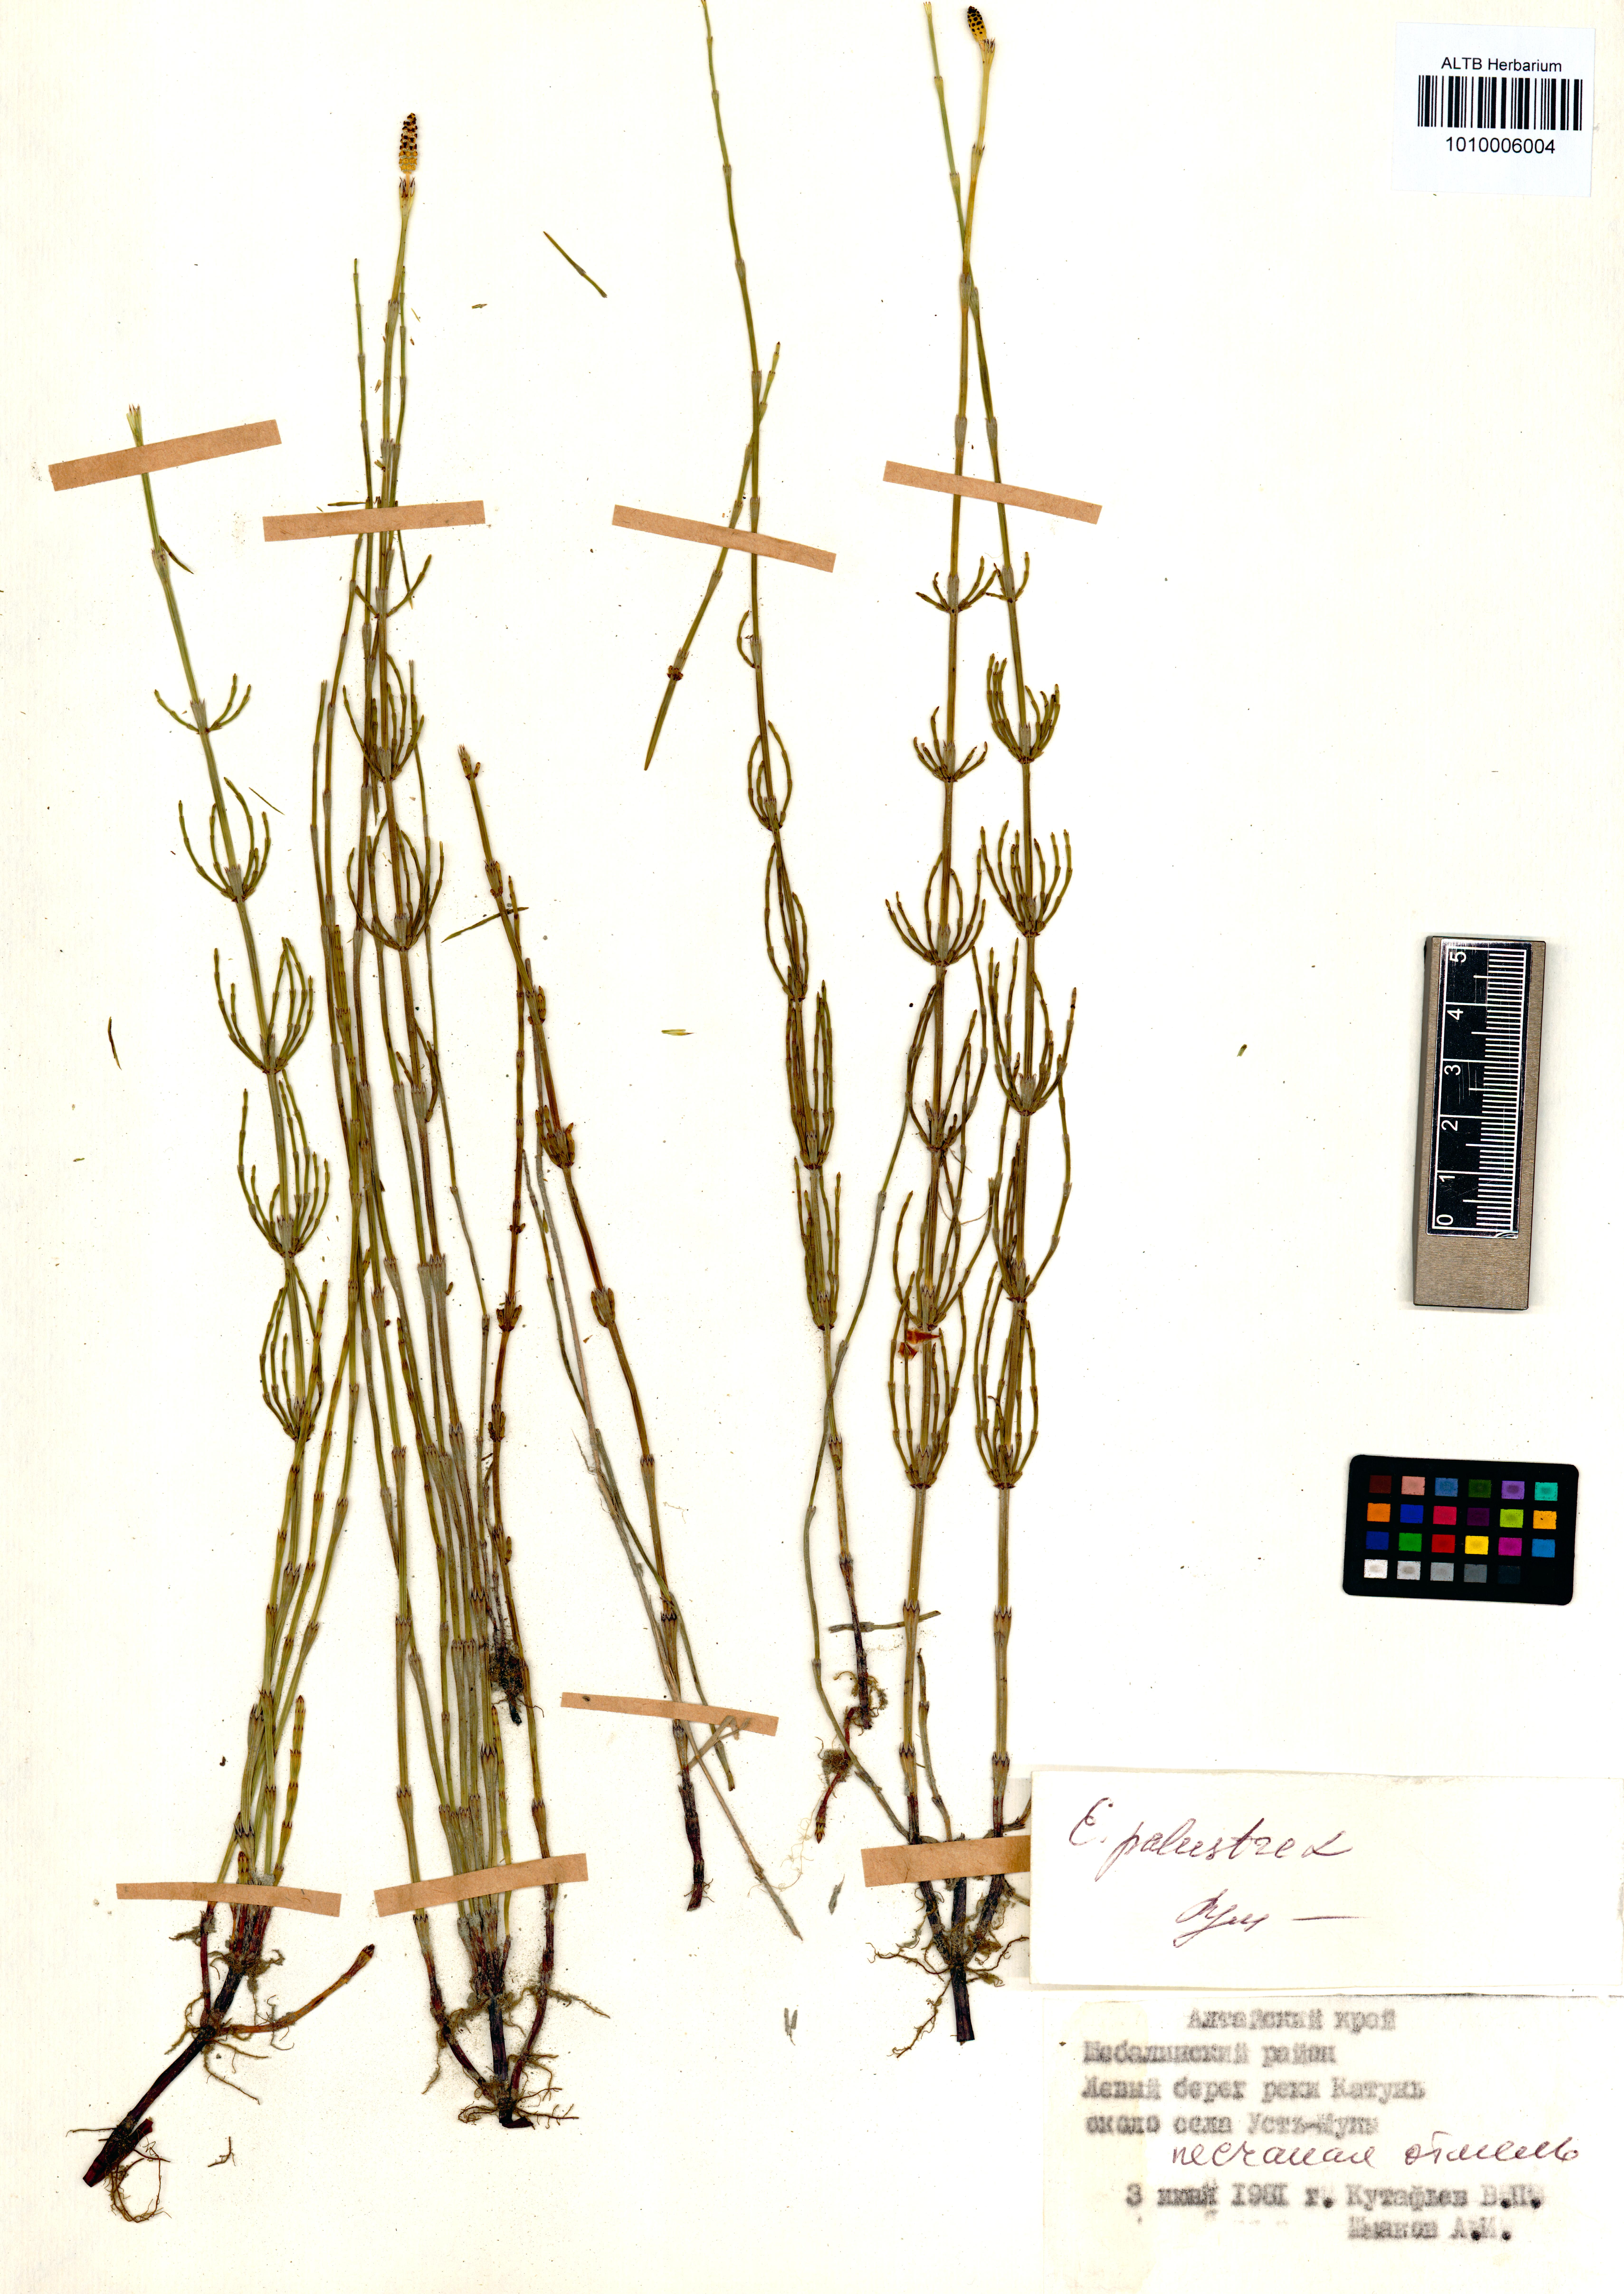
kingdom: Plantae
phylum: Tracheophyta
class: Polypodiopsida
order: Equisetales
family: Equisetaceae
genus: Equisetum
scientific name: Equisetum palustre
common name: Marsh horsetail
